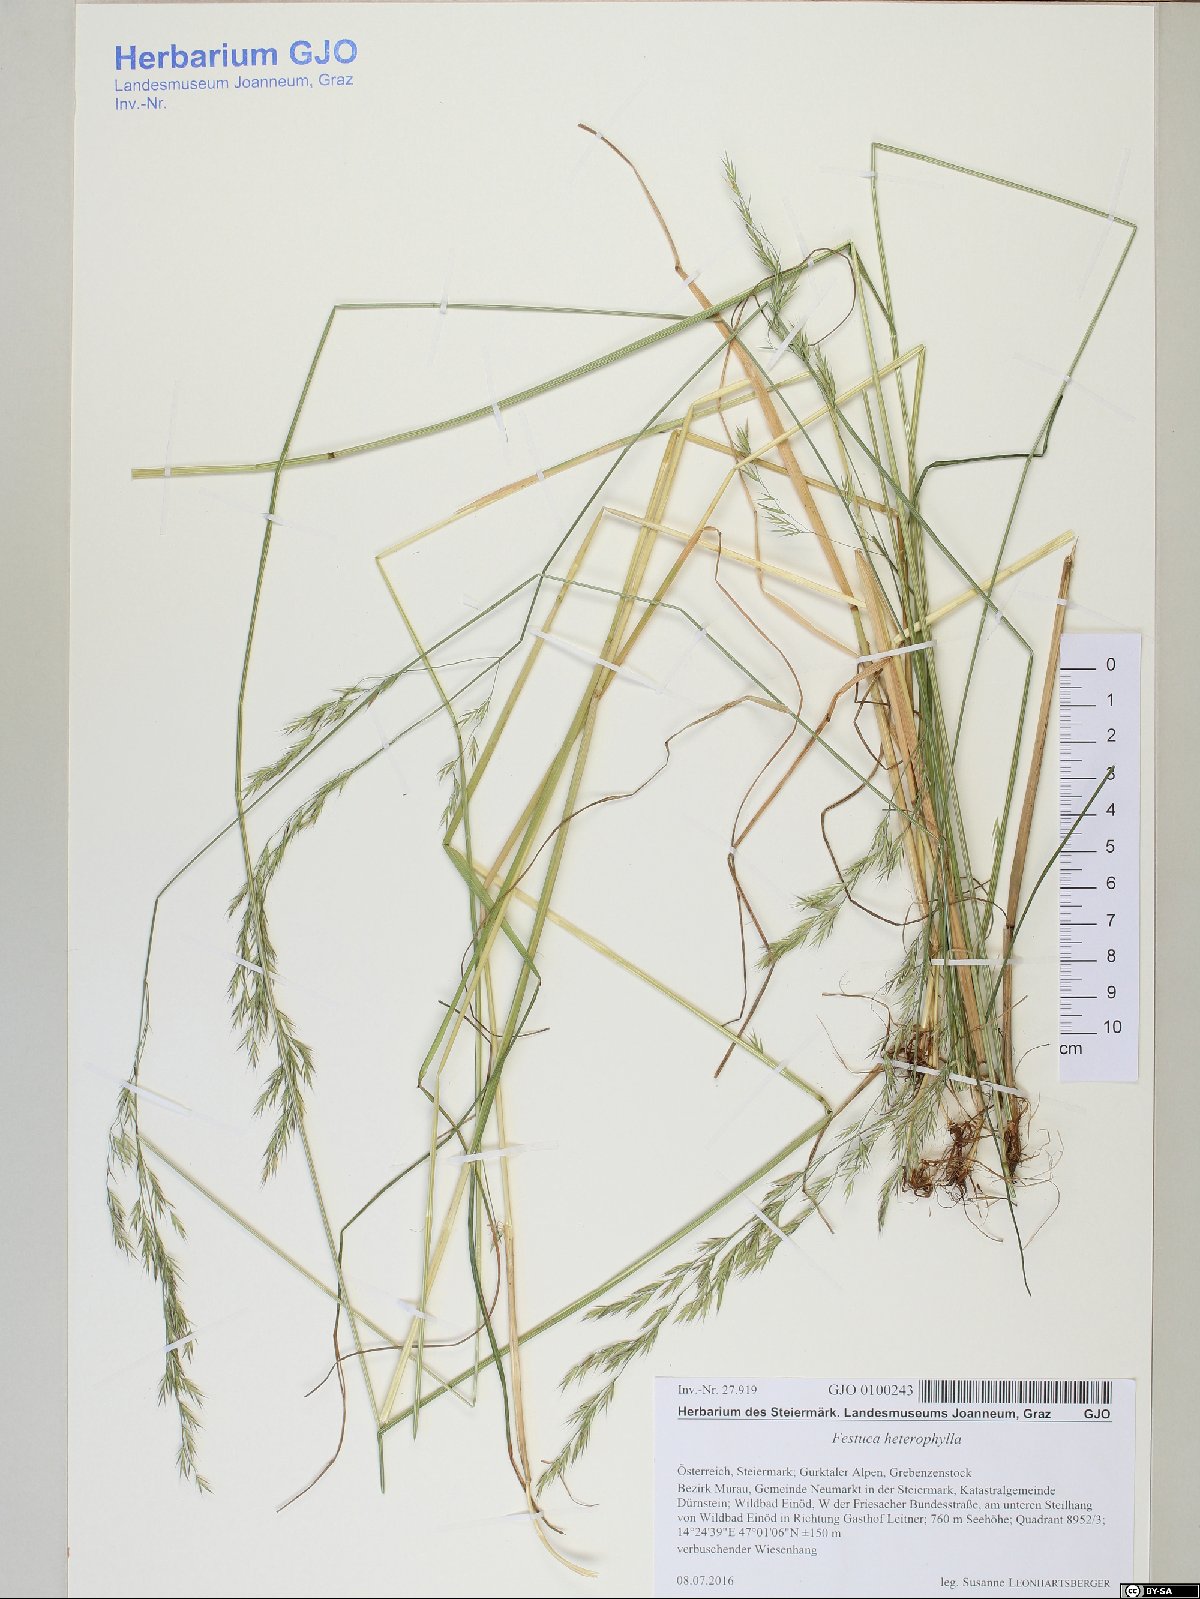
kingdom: Plantae
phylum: Tracheophyta
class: Liliopsida
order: Poales
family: Poaceae
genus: Festuca
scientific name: Festuca heterophylla
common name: Various-leaved fescue
